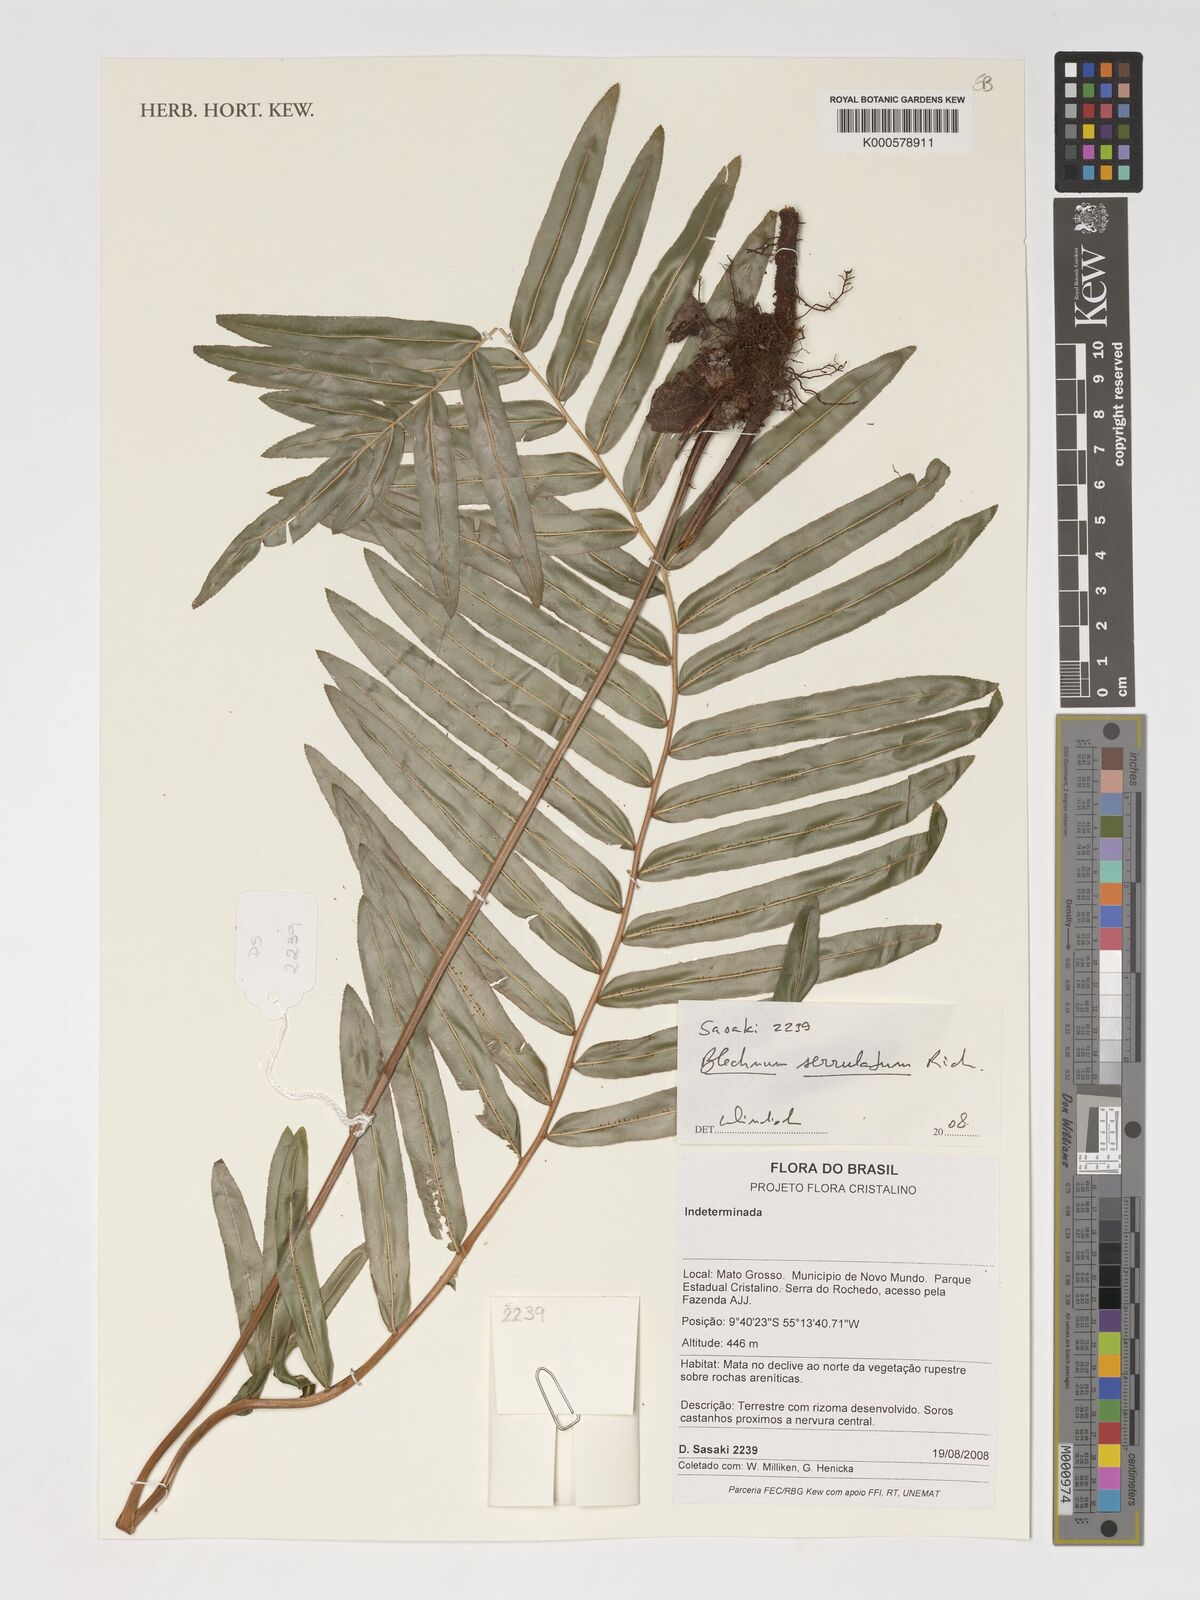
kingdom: Plantae
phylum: Tracheophyta
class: Polypodiopsida
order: Polypodiales
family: Blechnaceae
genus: Telmatoblechnum
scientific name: Telmatoblechnum serrulatum
